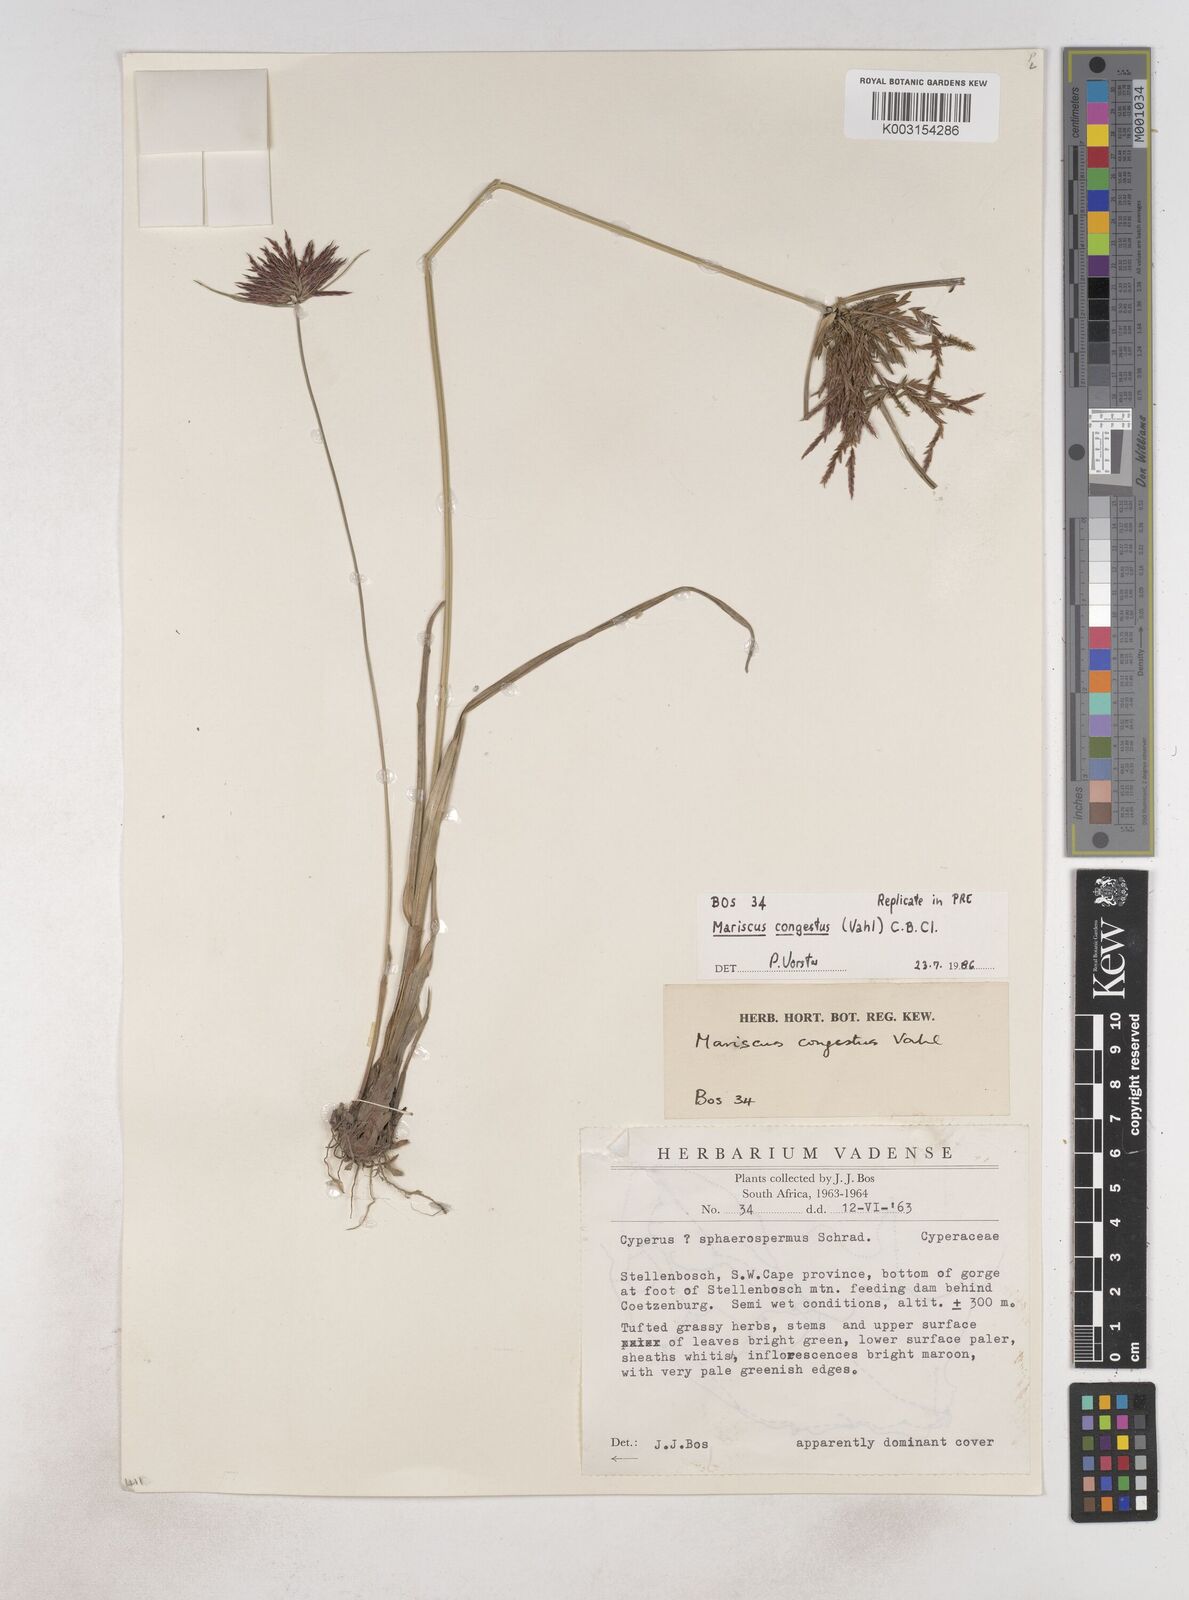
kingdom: Plantae
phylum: Tracheophyta
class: Liliopsida
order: Poales
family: Cyperaceae
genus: Cyperus
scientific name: Cyperus congestus
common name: Dense flat sedge
